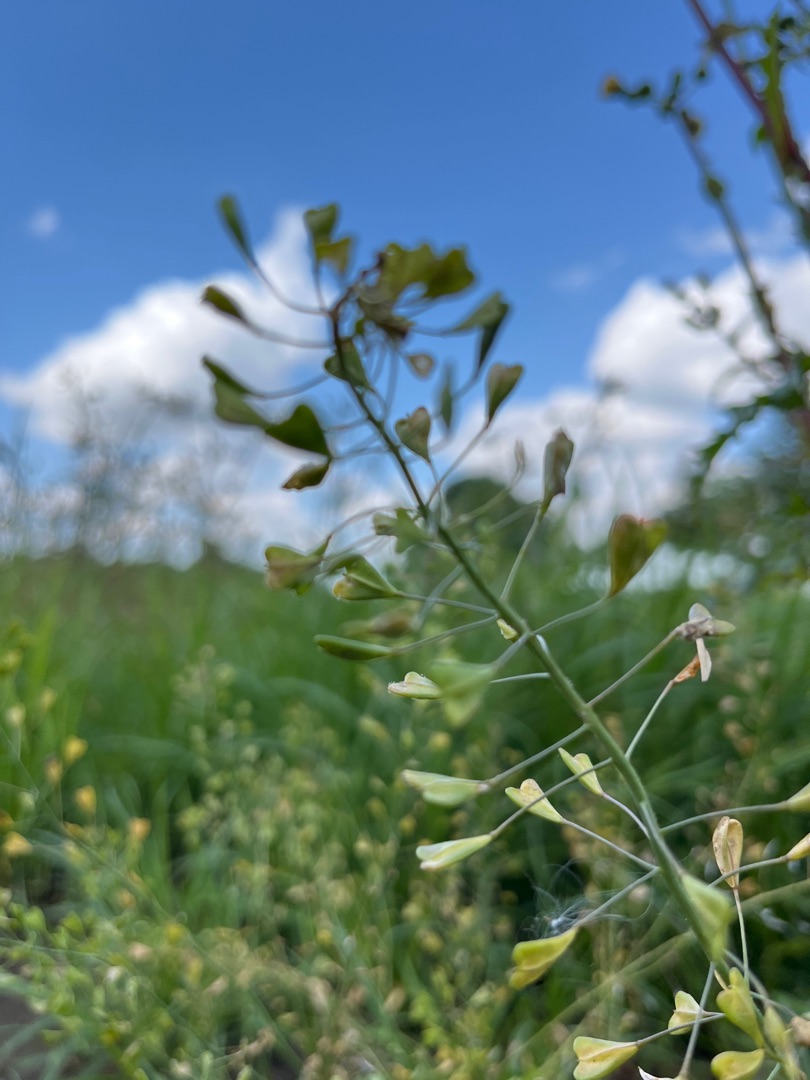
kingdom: Plantae
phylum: Tracheophyta
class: Magnoliopsida
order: Brassicales
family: Brassicaceae
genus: Capsella
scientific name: Capsella bursa-pastoris
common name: Hyrdetaske
